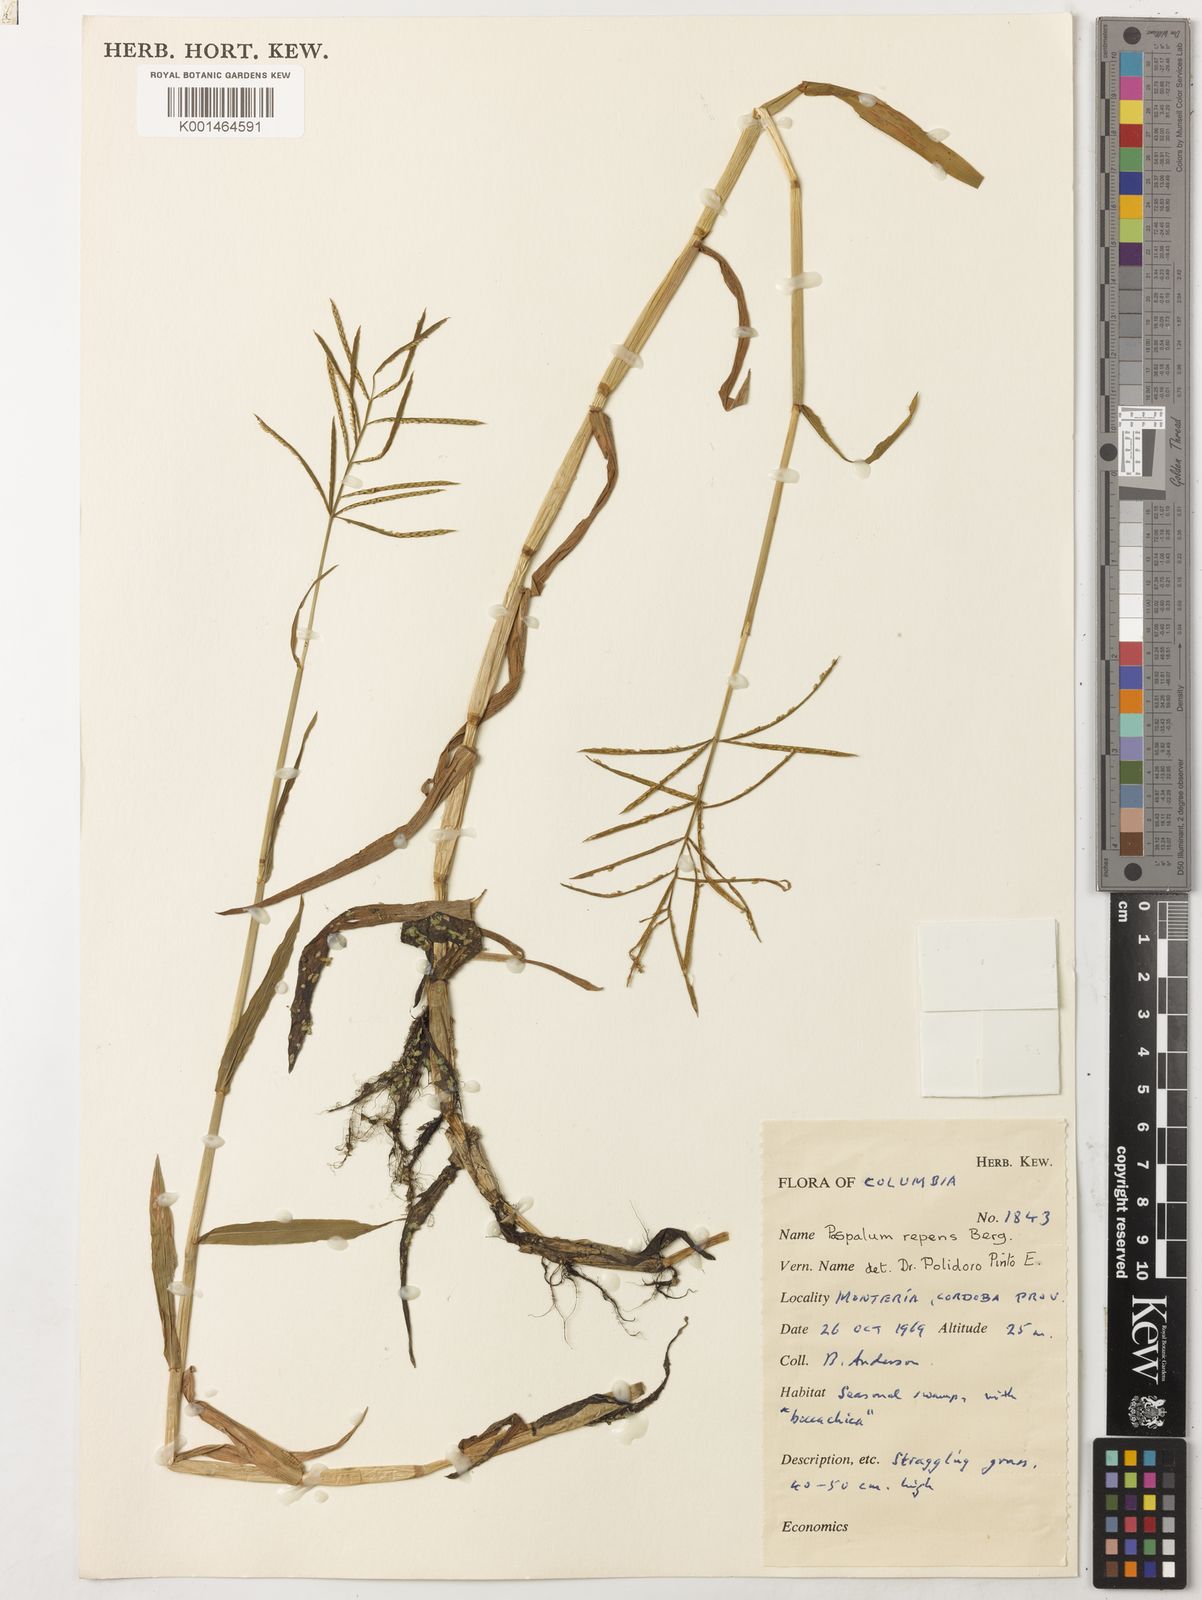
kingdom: Plantae
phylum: Tracheophyta
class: Liliopsida
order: Poales
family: Poaceae
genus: Paspalum
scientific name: Paspalum repens
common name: Water paspalum
